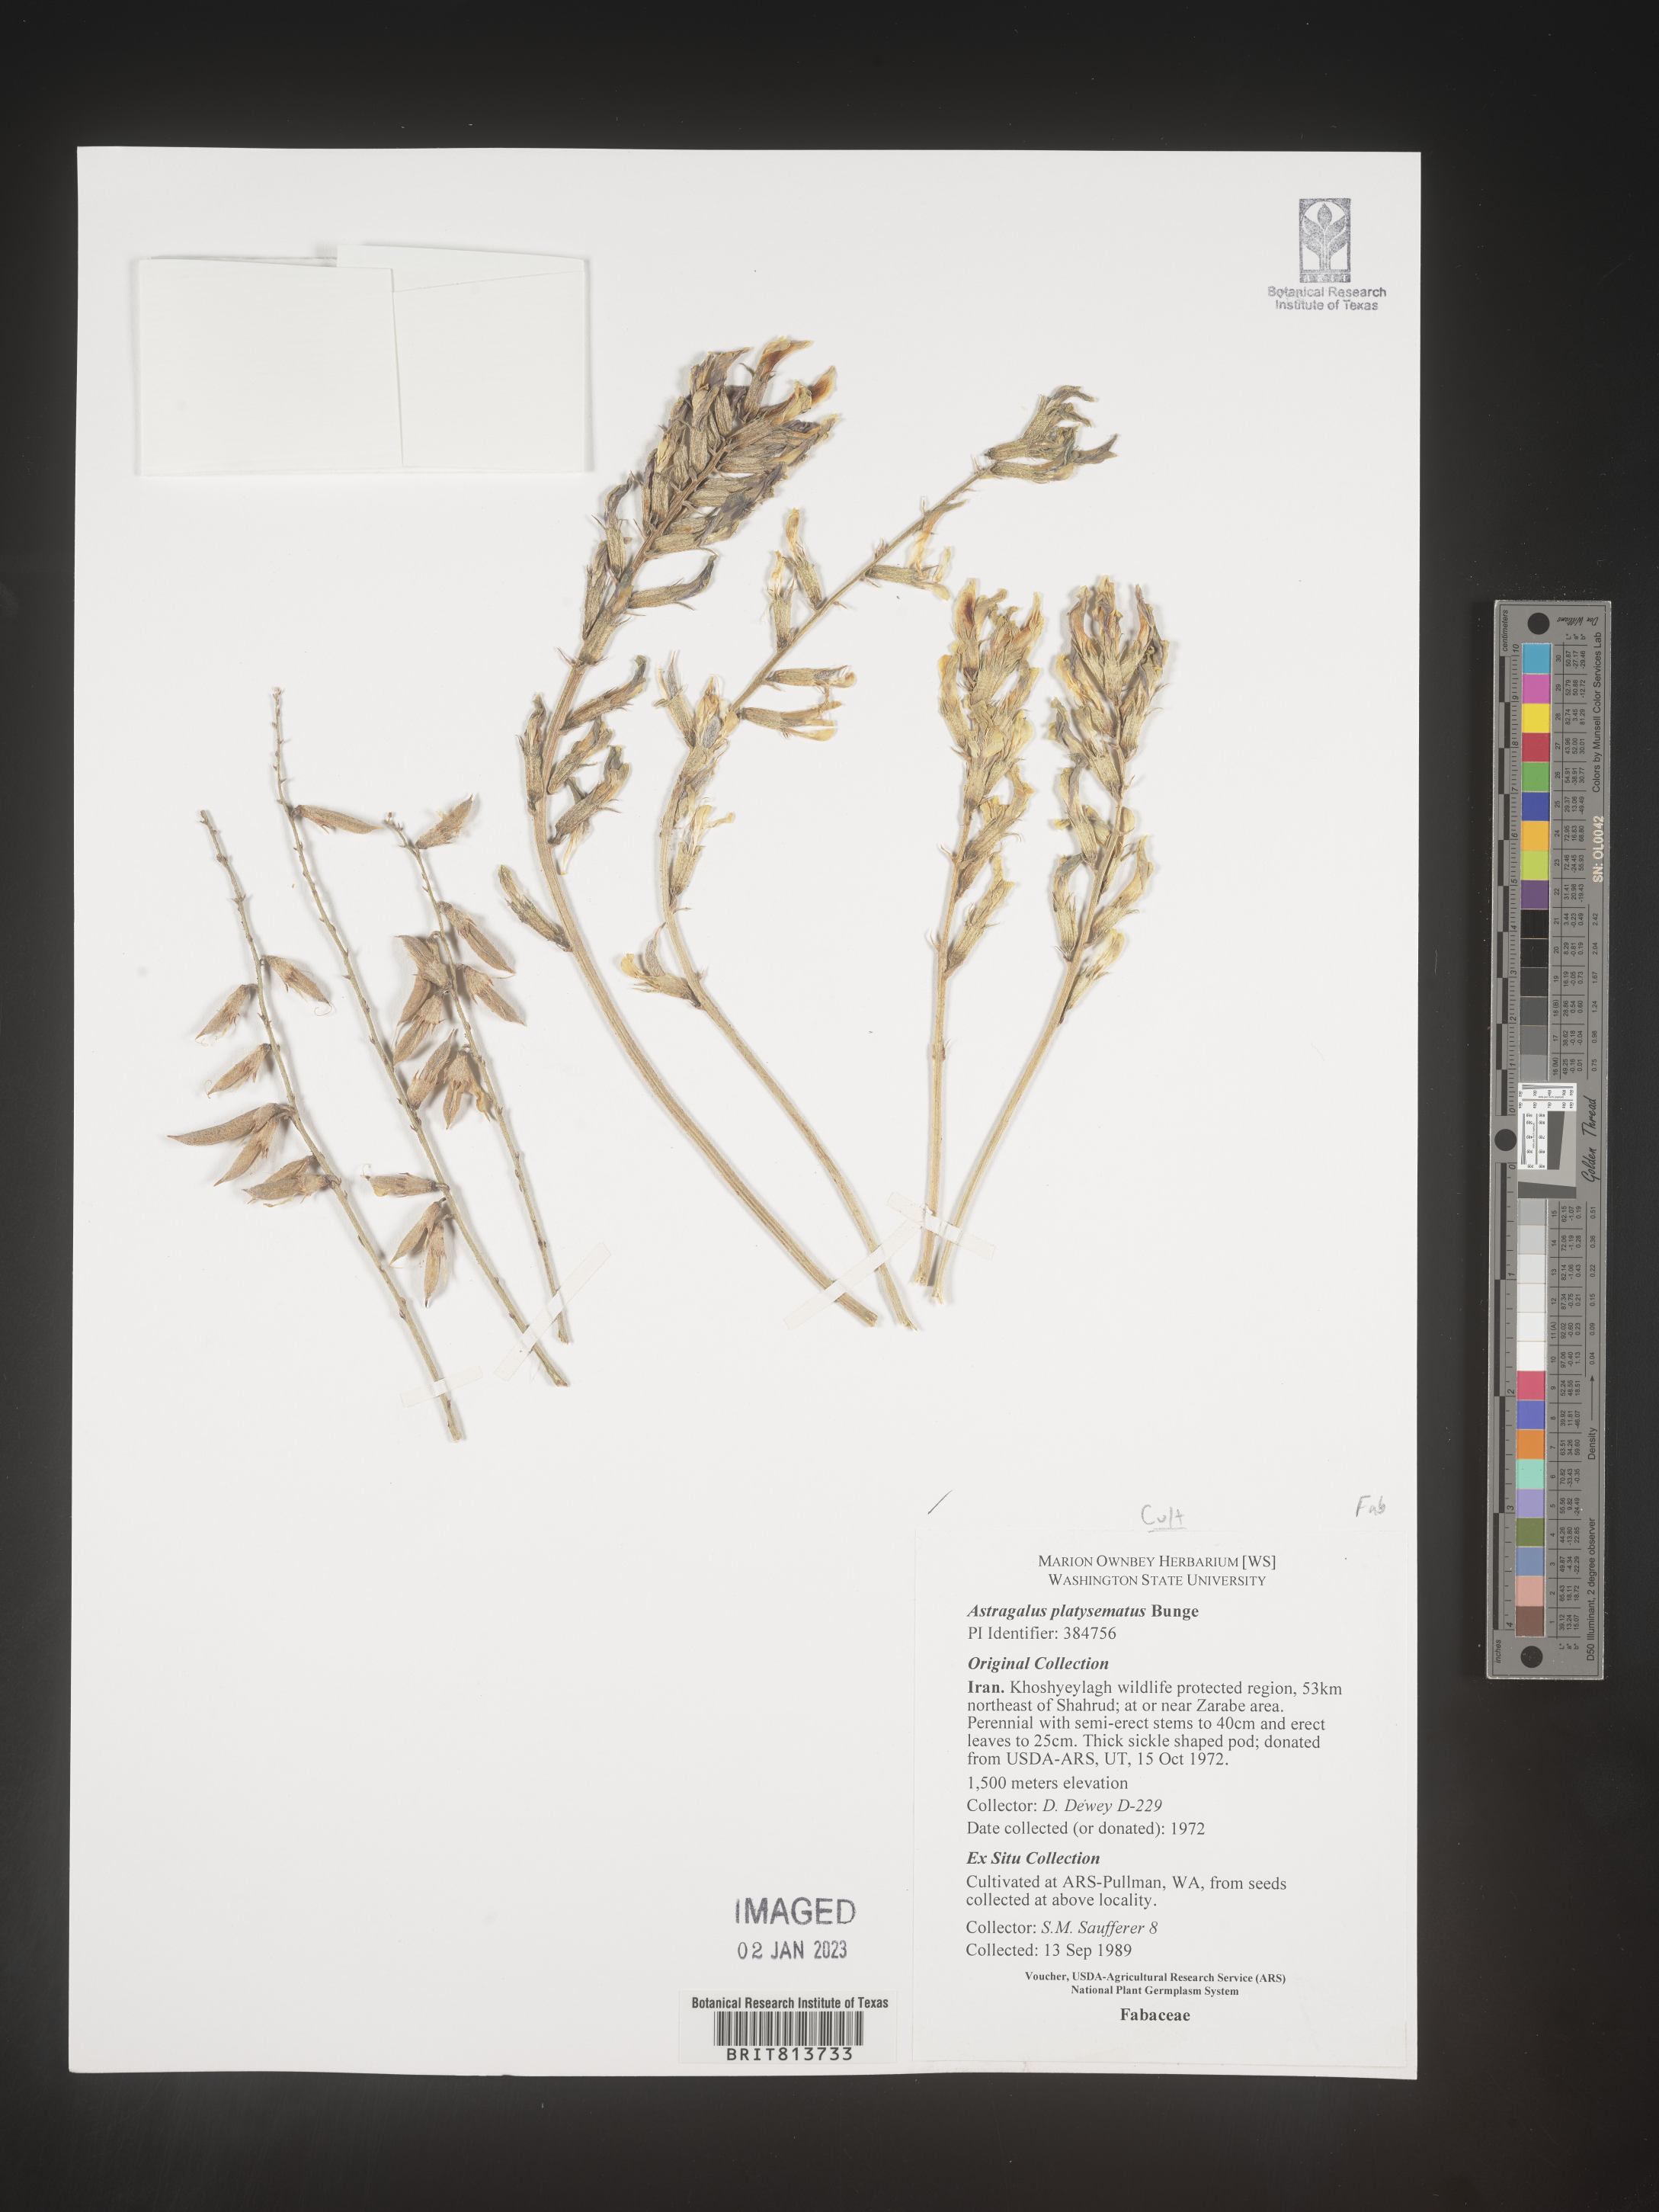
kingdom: Plantae
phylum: Tracheophyta
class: Magnoliopsida
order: Fabales
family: Fabaceae
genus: Astragalus
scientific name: Astragalus
